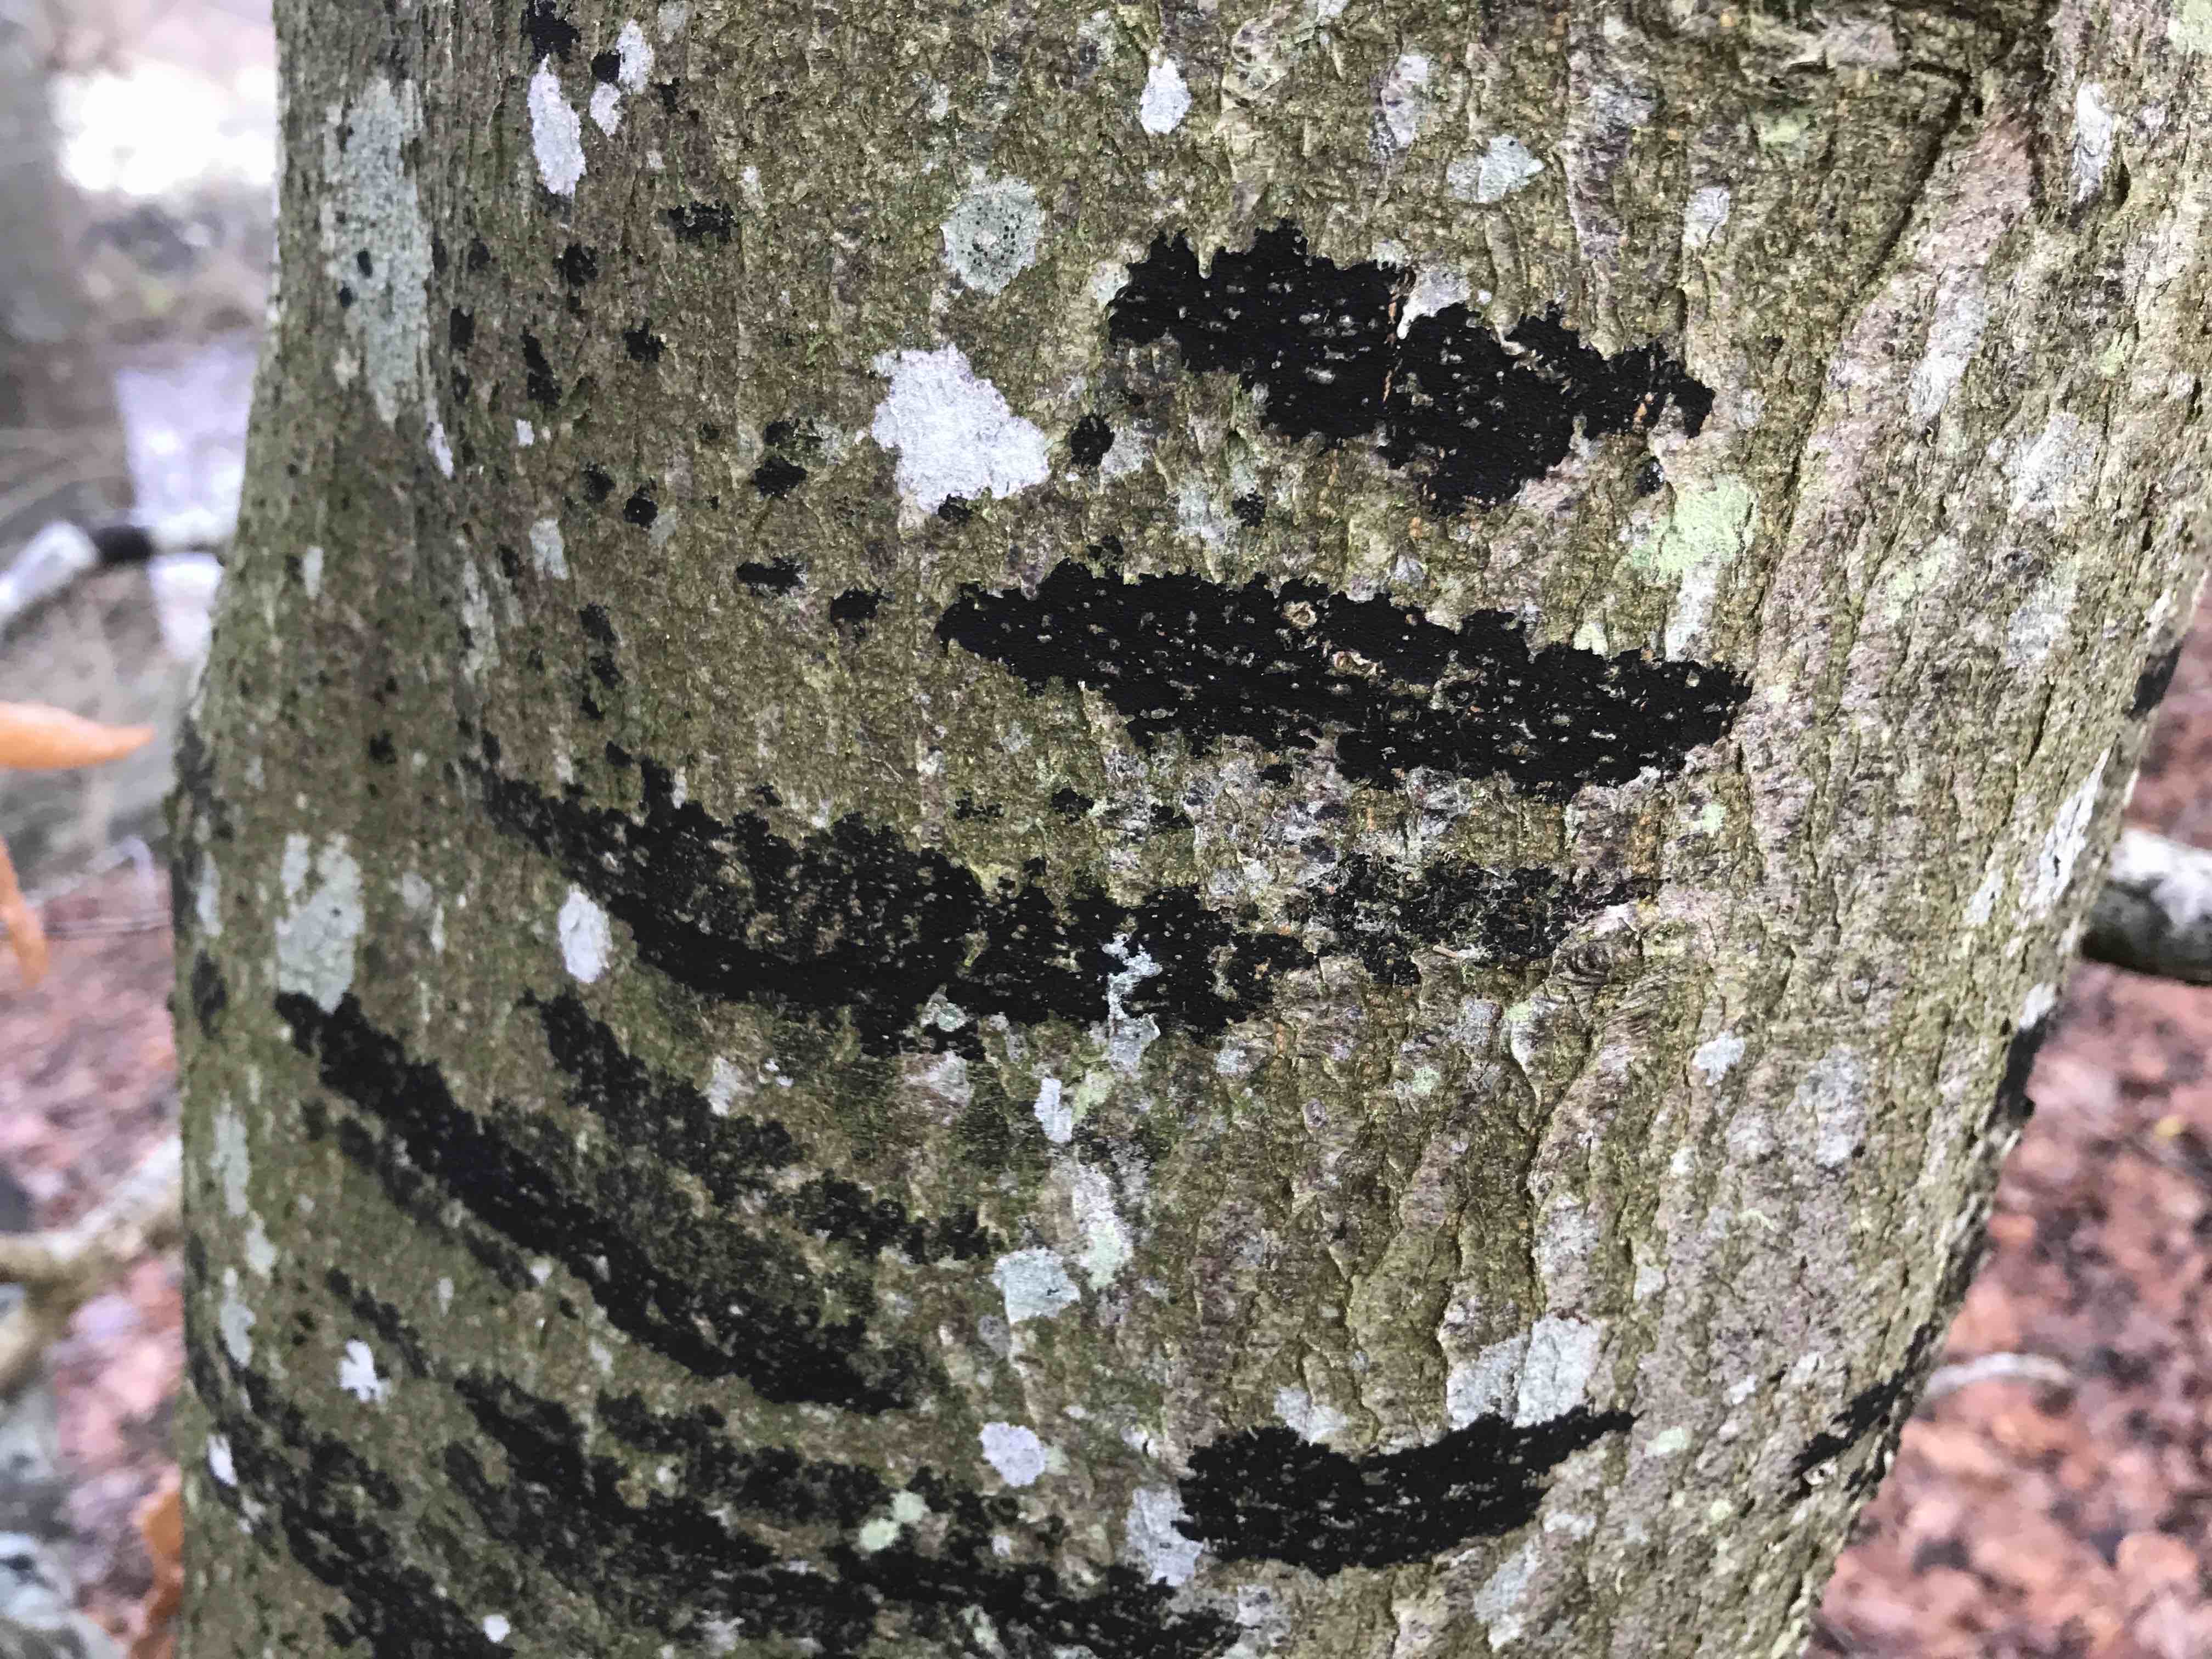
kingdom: Fungi
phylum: Ascomycota
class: Leotiomycetes
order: Rhytismatales
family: Ascodichaenaceae
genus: Ascodichaena
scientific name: Ascodichaena rugosa
